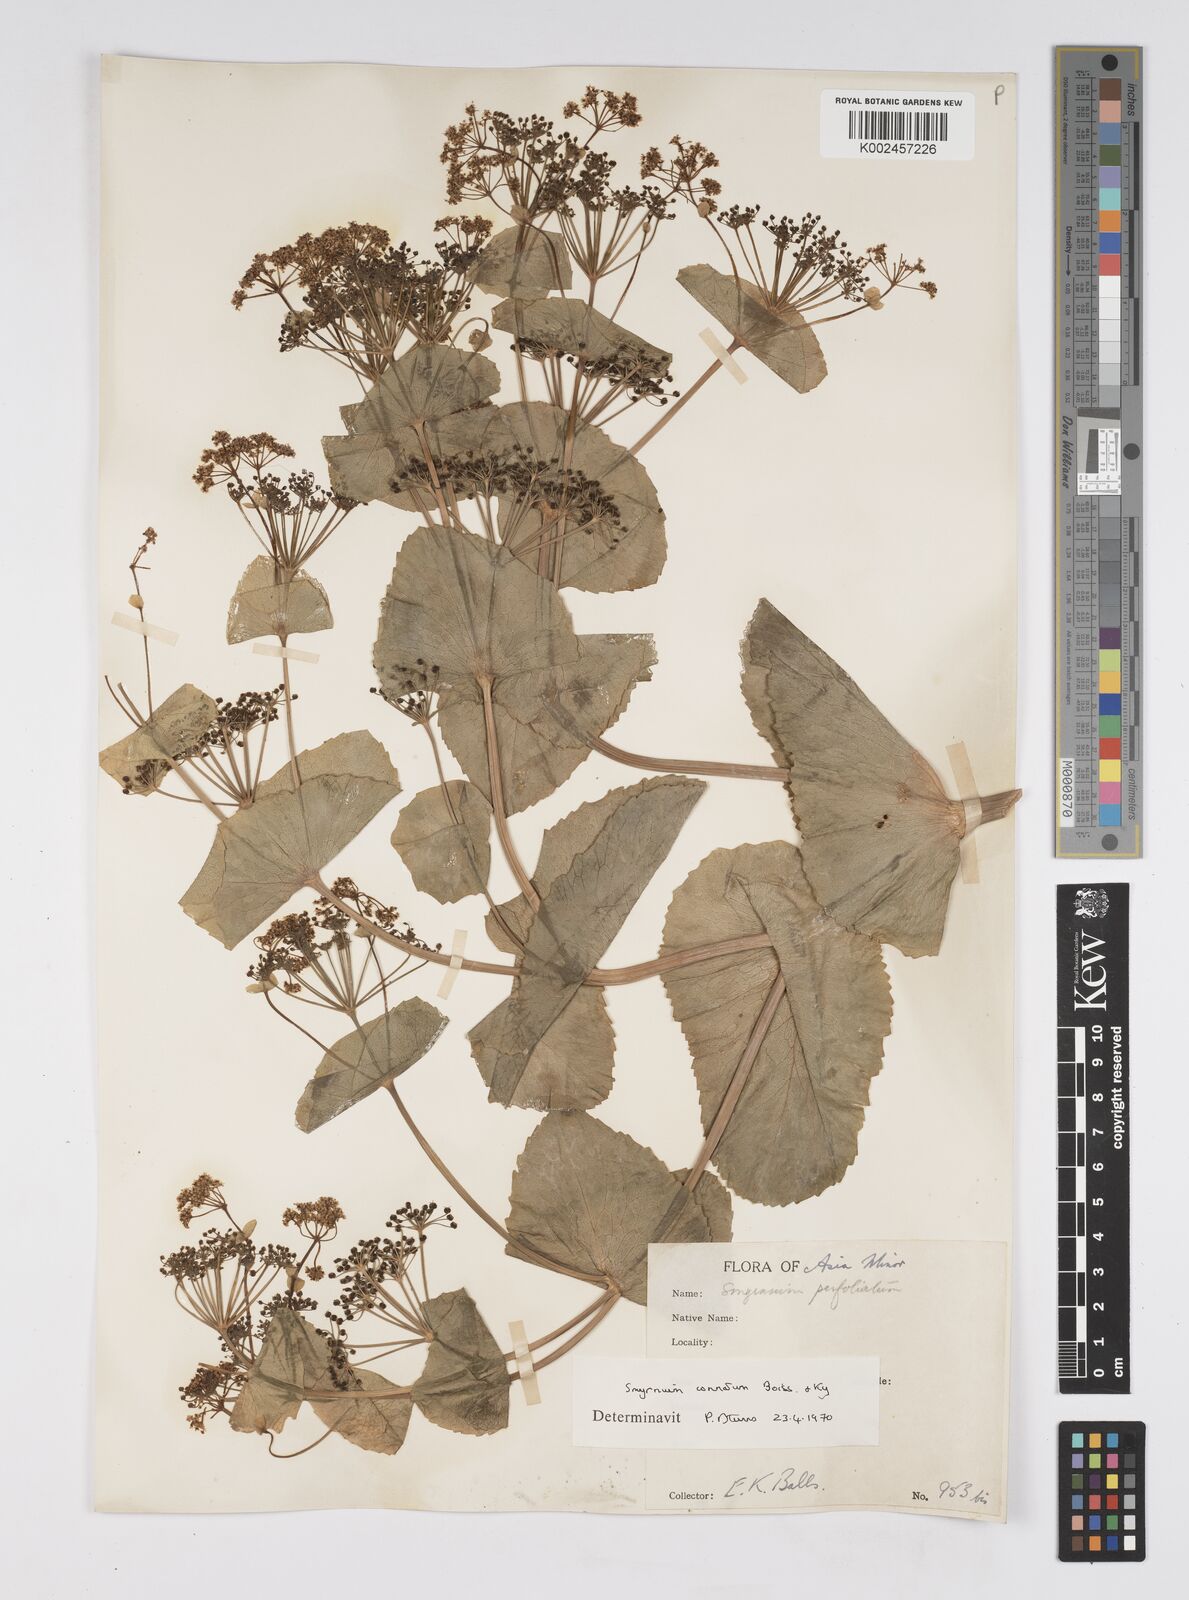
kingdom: Plantae
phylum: Tracheophyta
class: Magnoliopsida
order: Apiales
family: Apiaceae
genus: Smyrnium
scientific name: Smyrnium connatum
